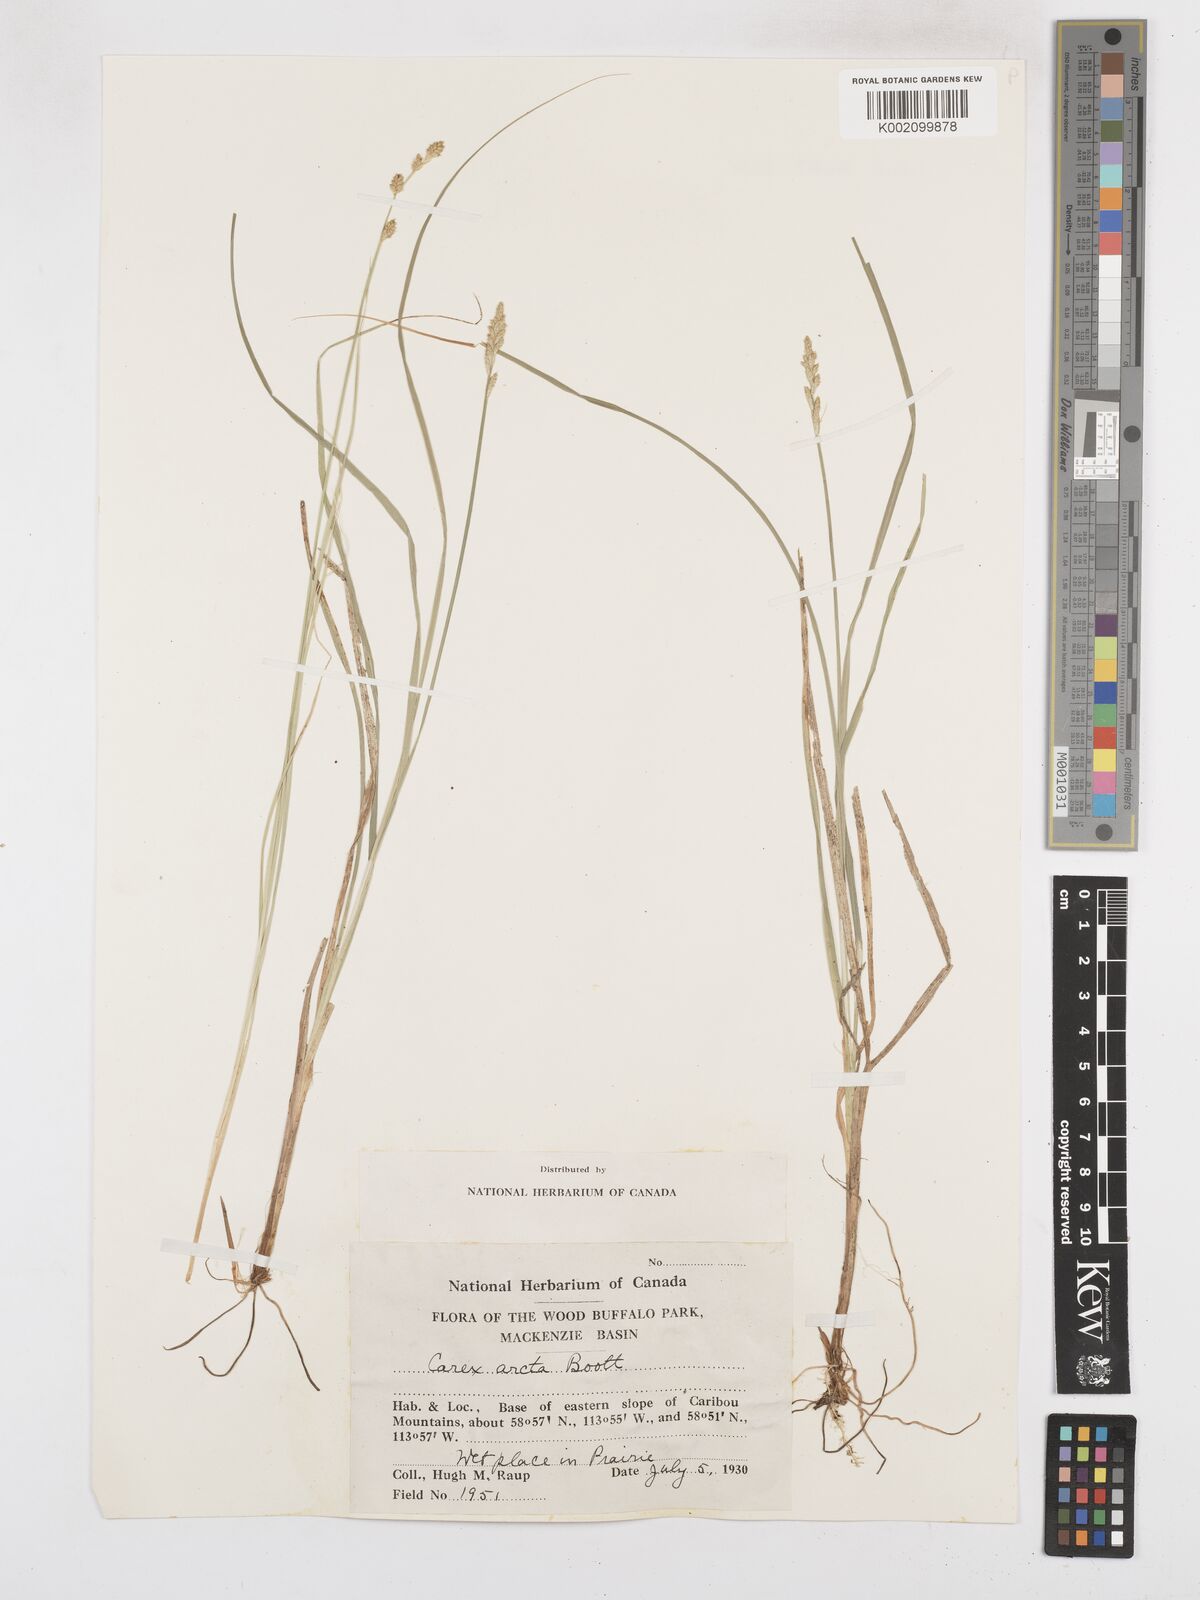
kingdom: Plantae
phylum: Tracheophyta
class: Liliopsida
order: Poales
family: Cyperaceae
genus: Carex
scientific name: Carex arcta
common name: Bear sedge
